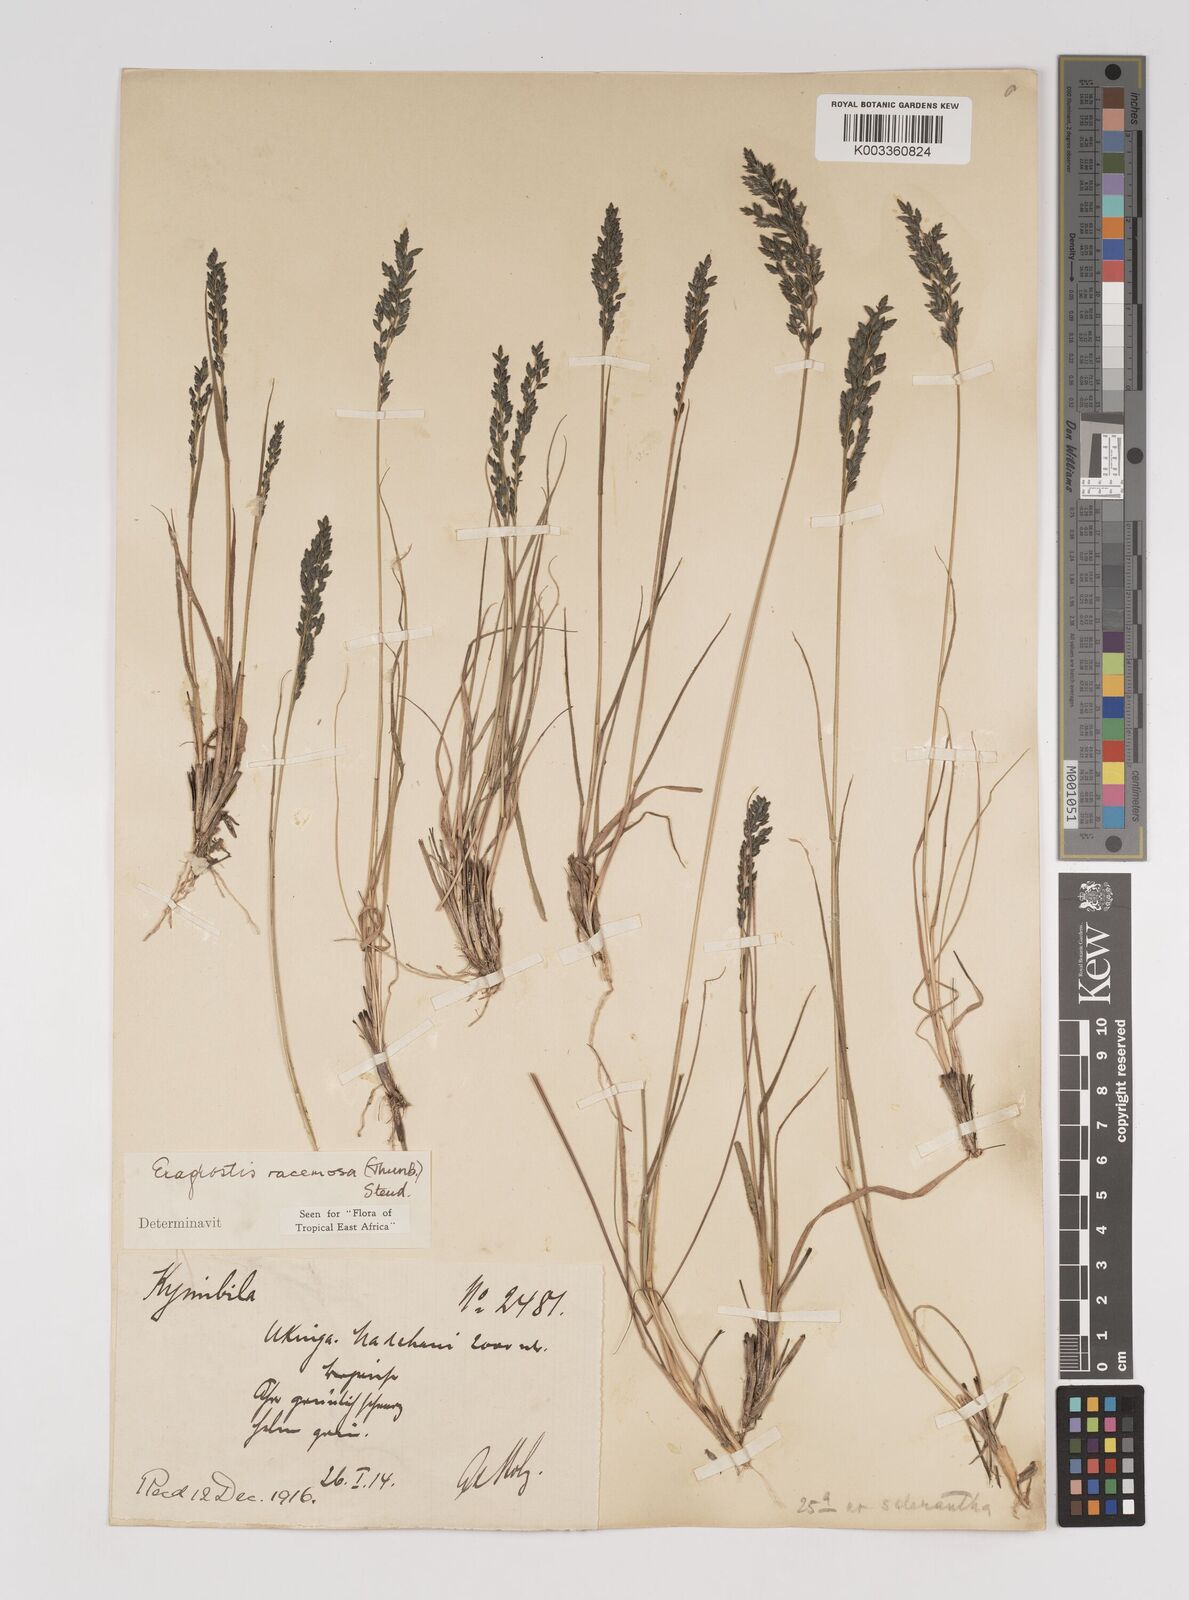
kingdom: Plantae
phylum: Tracheophyta
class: Liliopsida
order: Poales
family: Poaceae
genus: Eragrostis
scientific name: Eragrostis racemosa
